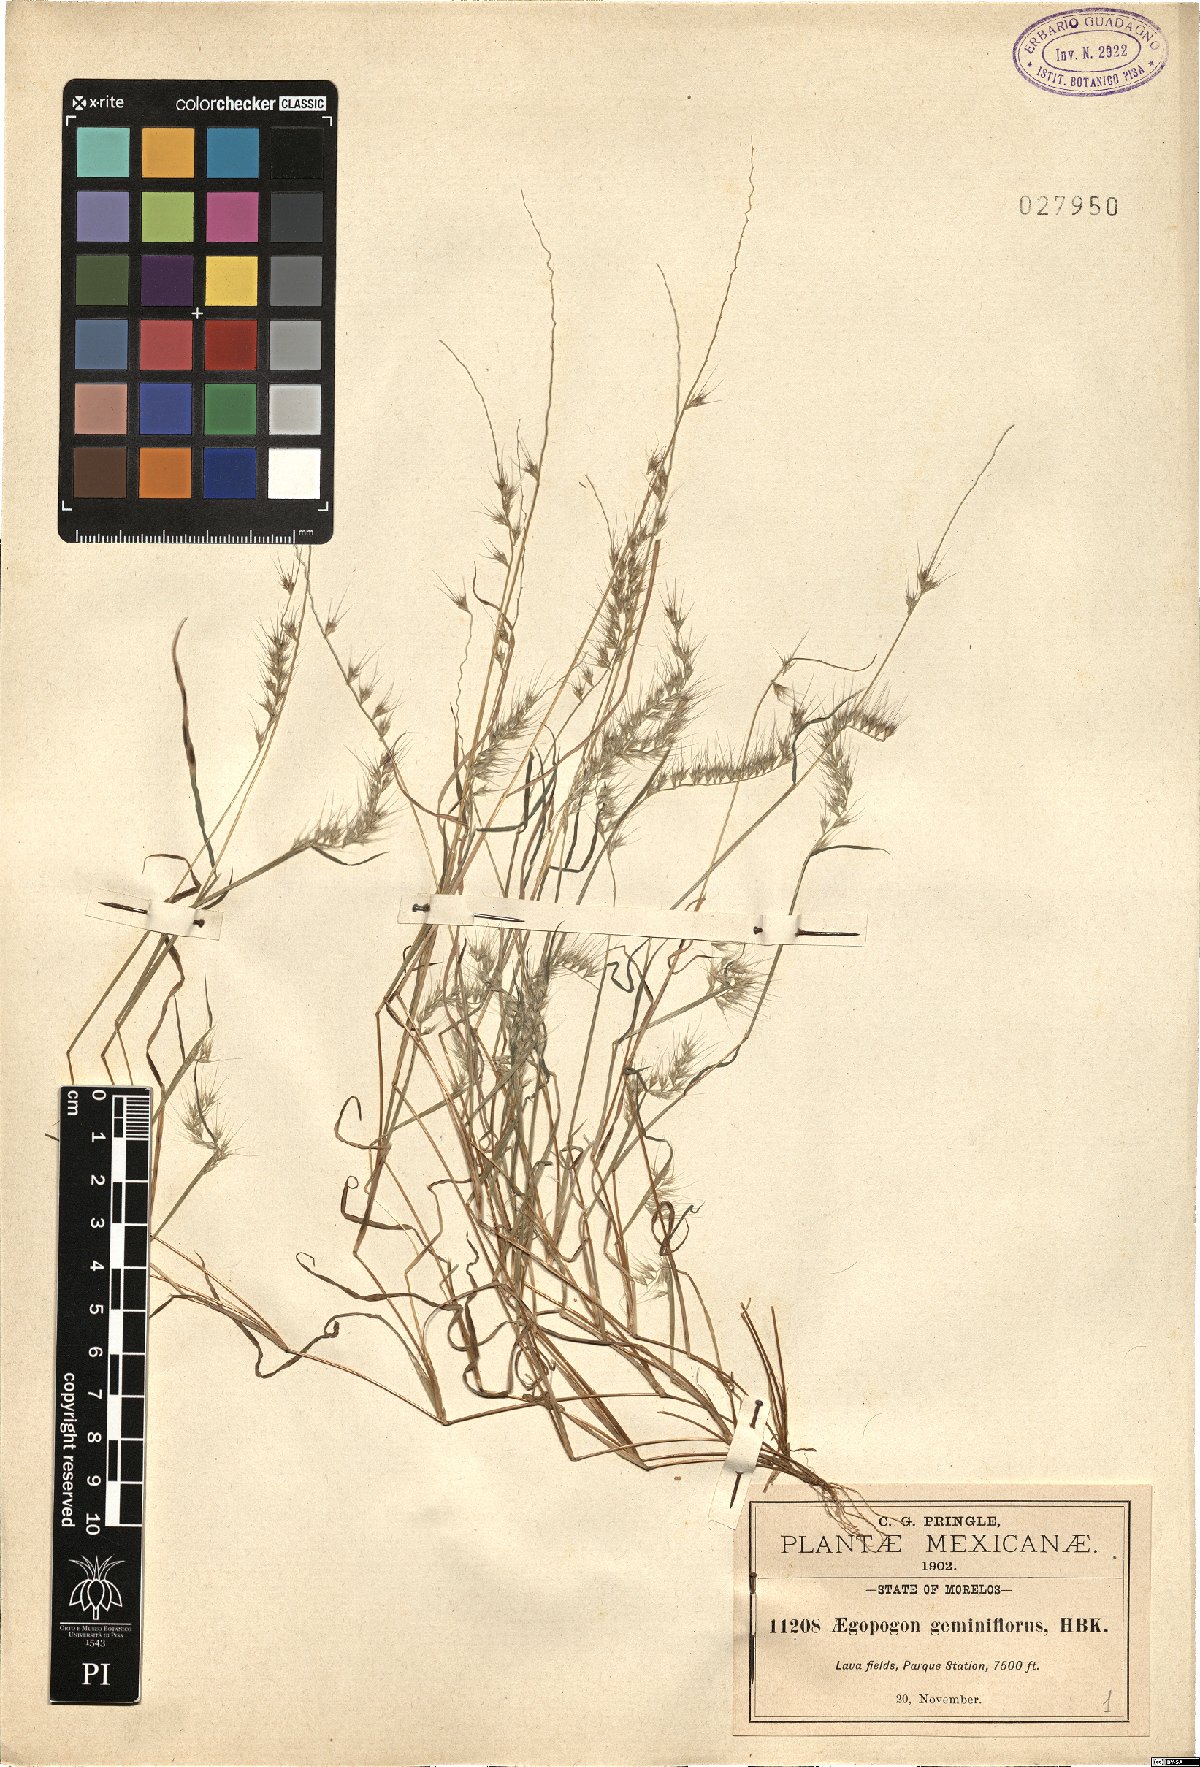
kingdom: Plantae
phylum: Tracheophyta
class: Liliopsida
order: Poales
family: Poaceae
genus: Muhlenbergia
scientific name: Muhlenbergia cenchroides
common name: Relaxgrass
